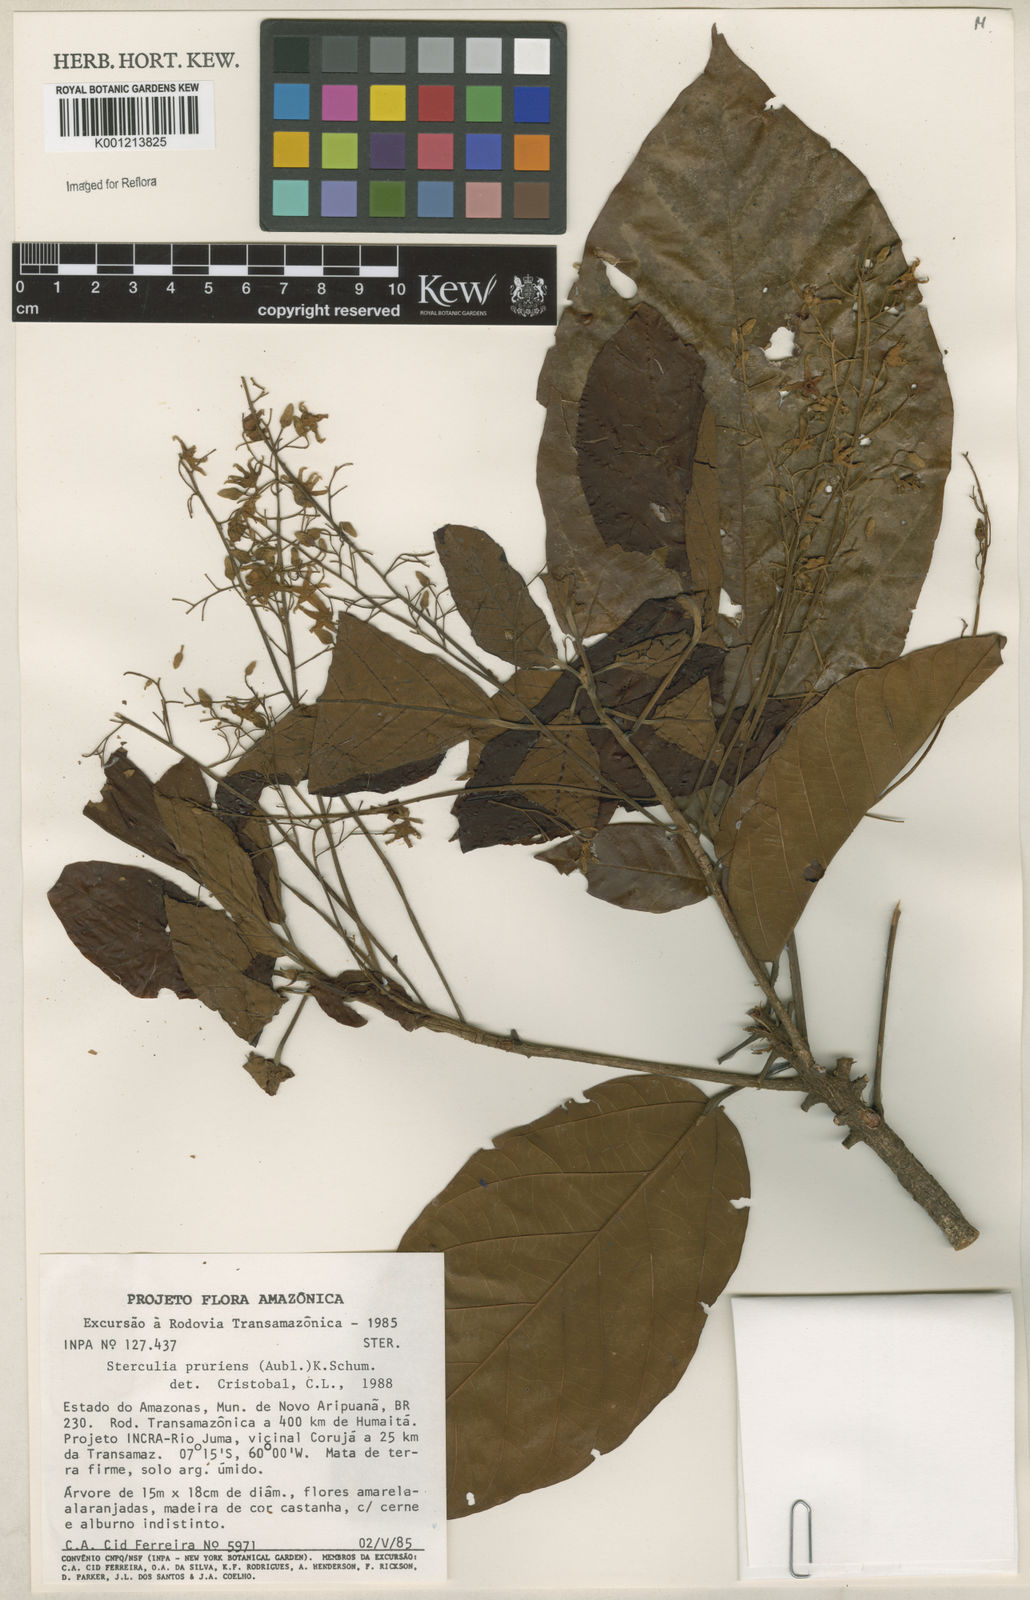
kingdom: Plantae
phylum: Tracheophyta
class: Magnoliopsida
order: Malvales
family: Malvaceae
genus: Sterculia
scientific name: Sterculia pruriens
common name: Grand mahot
